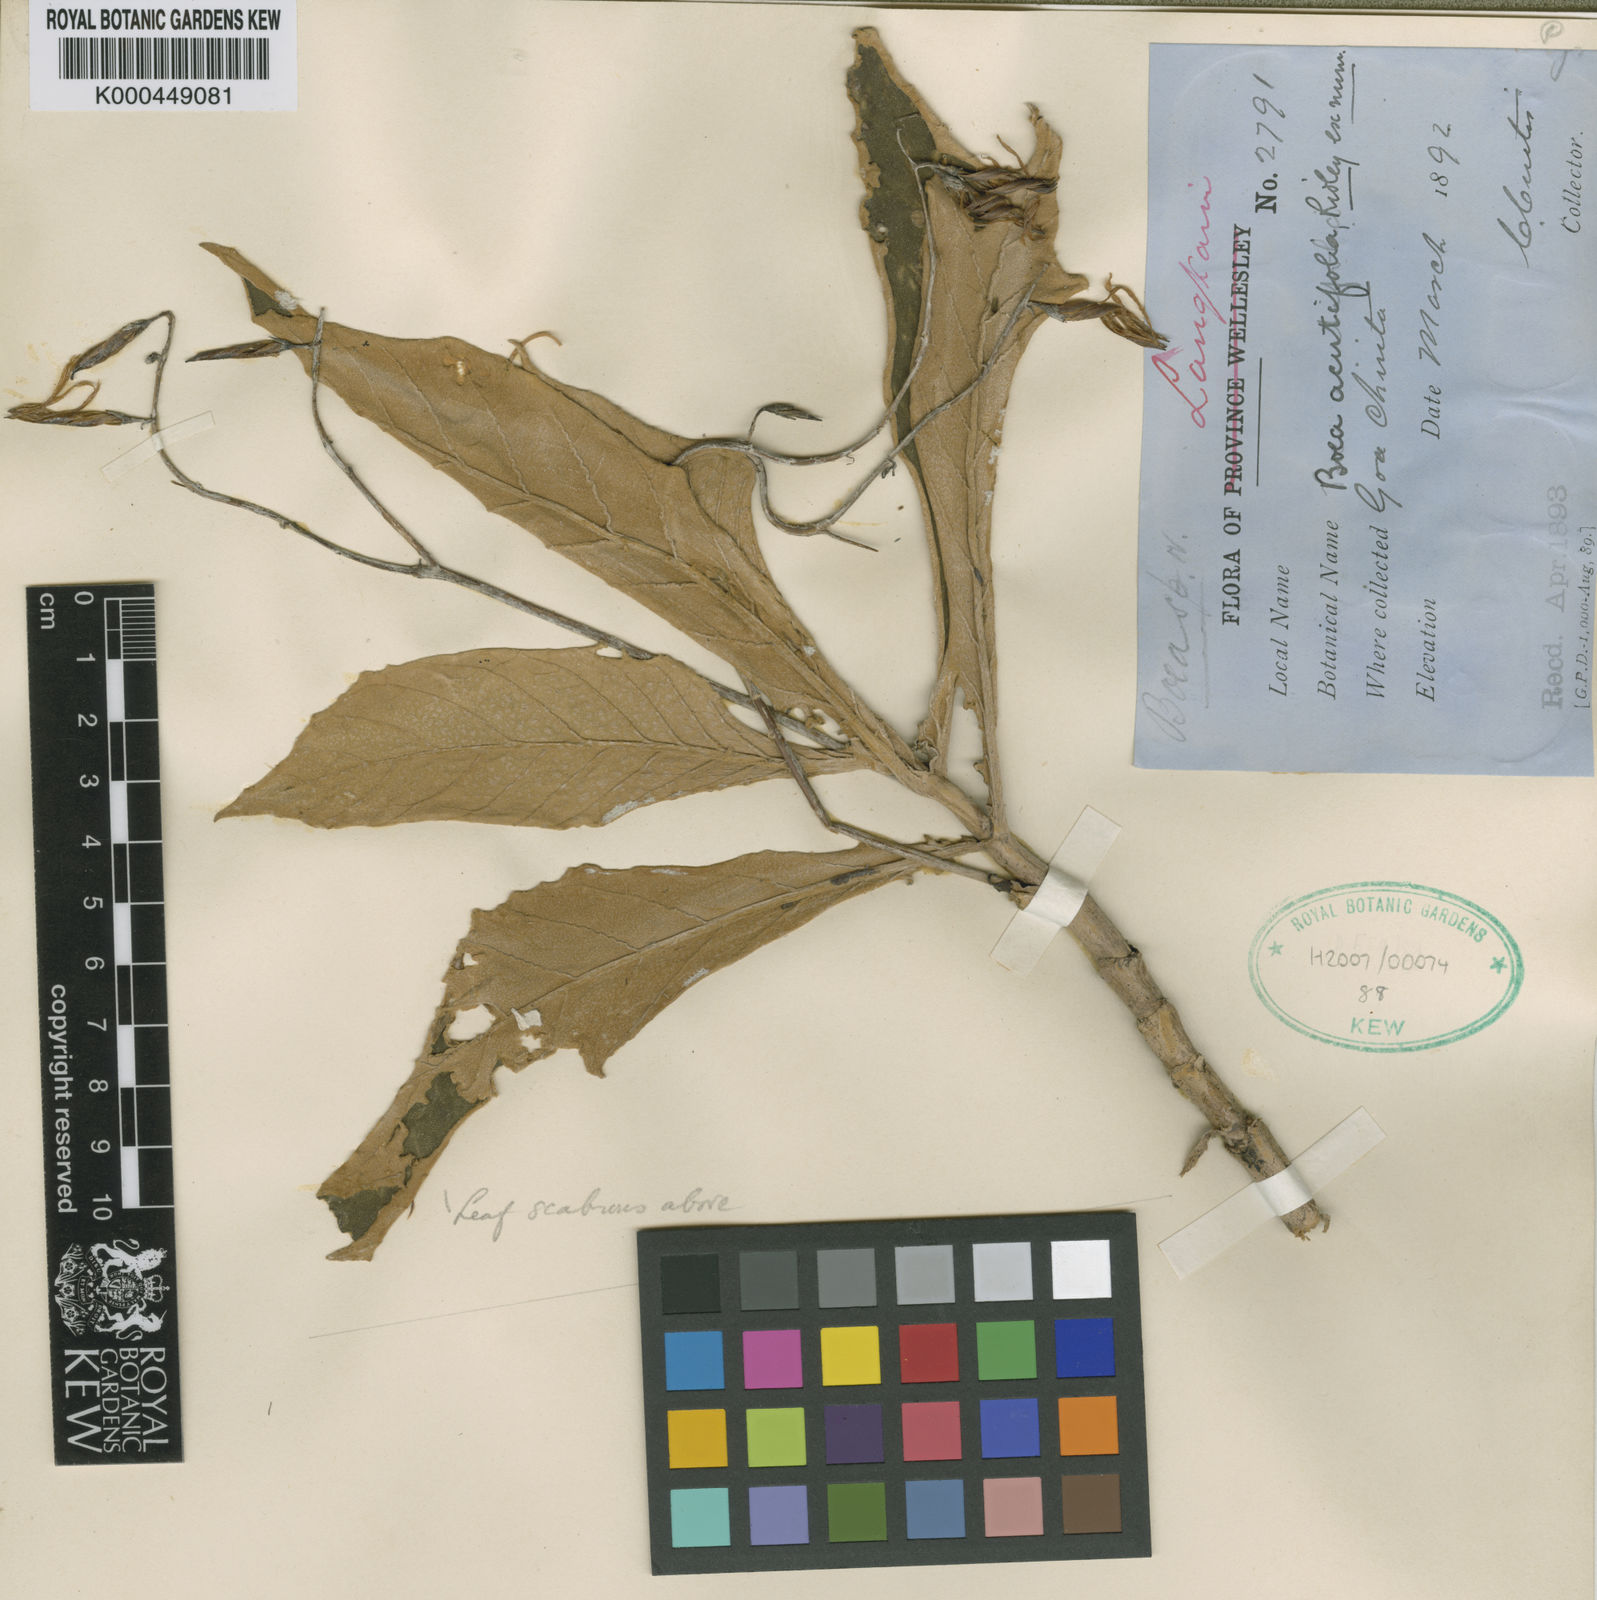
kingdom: Plantae
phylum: Tracheophyta
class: Magnoliopsida
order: Lamiales
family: Gesneriaceae
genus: Paraboea
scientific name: Paraboea acutifolia
